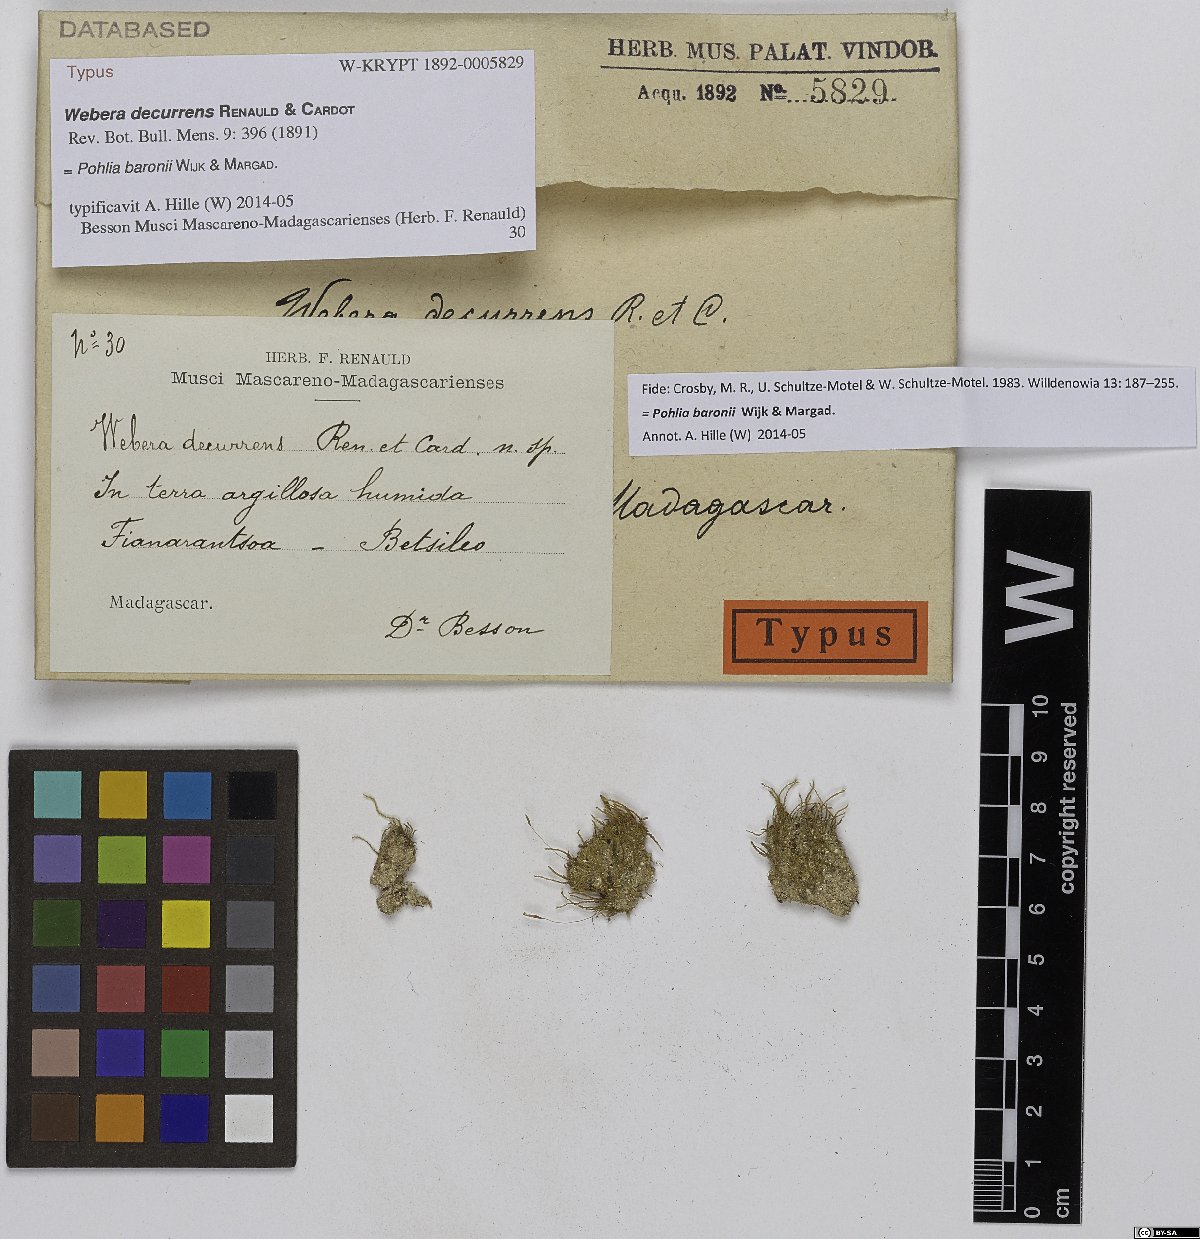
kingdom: Plantae
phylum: Bryophyta
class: Bryopsida
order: Bryales
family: Mniaceae
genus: Pohlia
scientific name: Pohlia baronii
